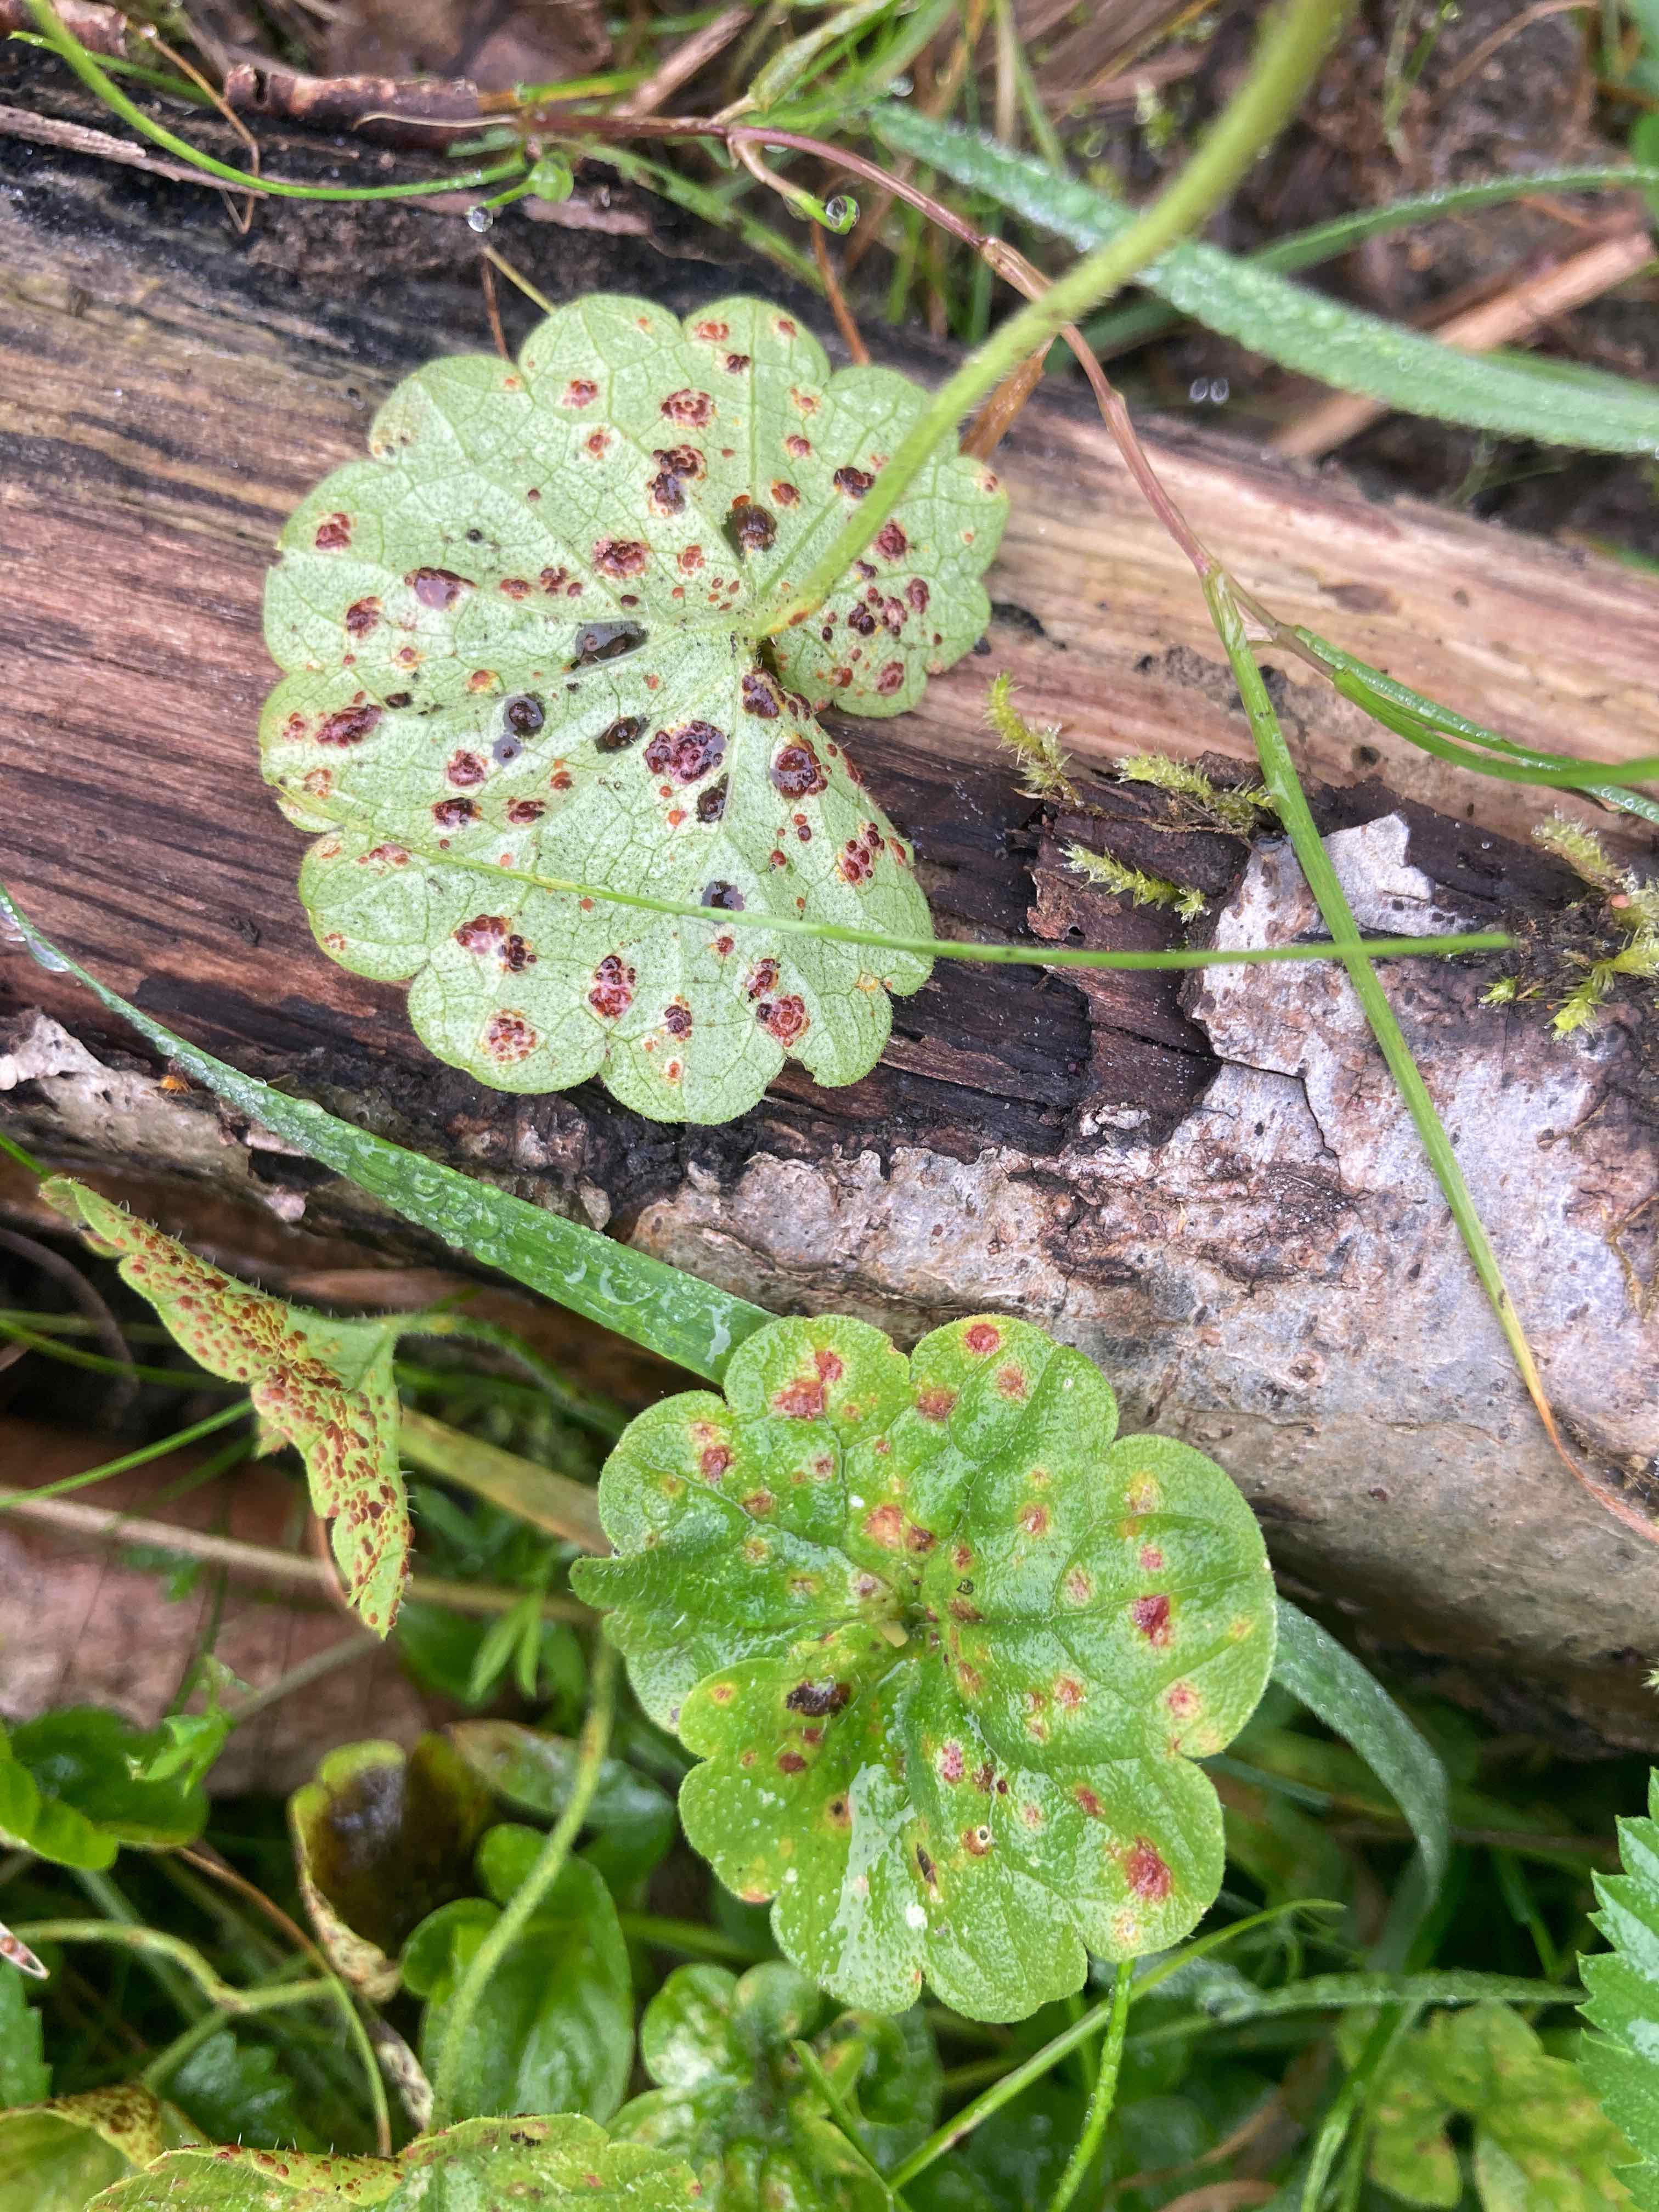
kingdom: Fungi
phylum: Basidiomycota
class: Pucciniomycetes
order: Pucciniales
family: Pucciniaceae
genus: Puccinia
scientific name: Puccinia glechomatis
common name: Ground ivy rust
